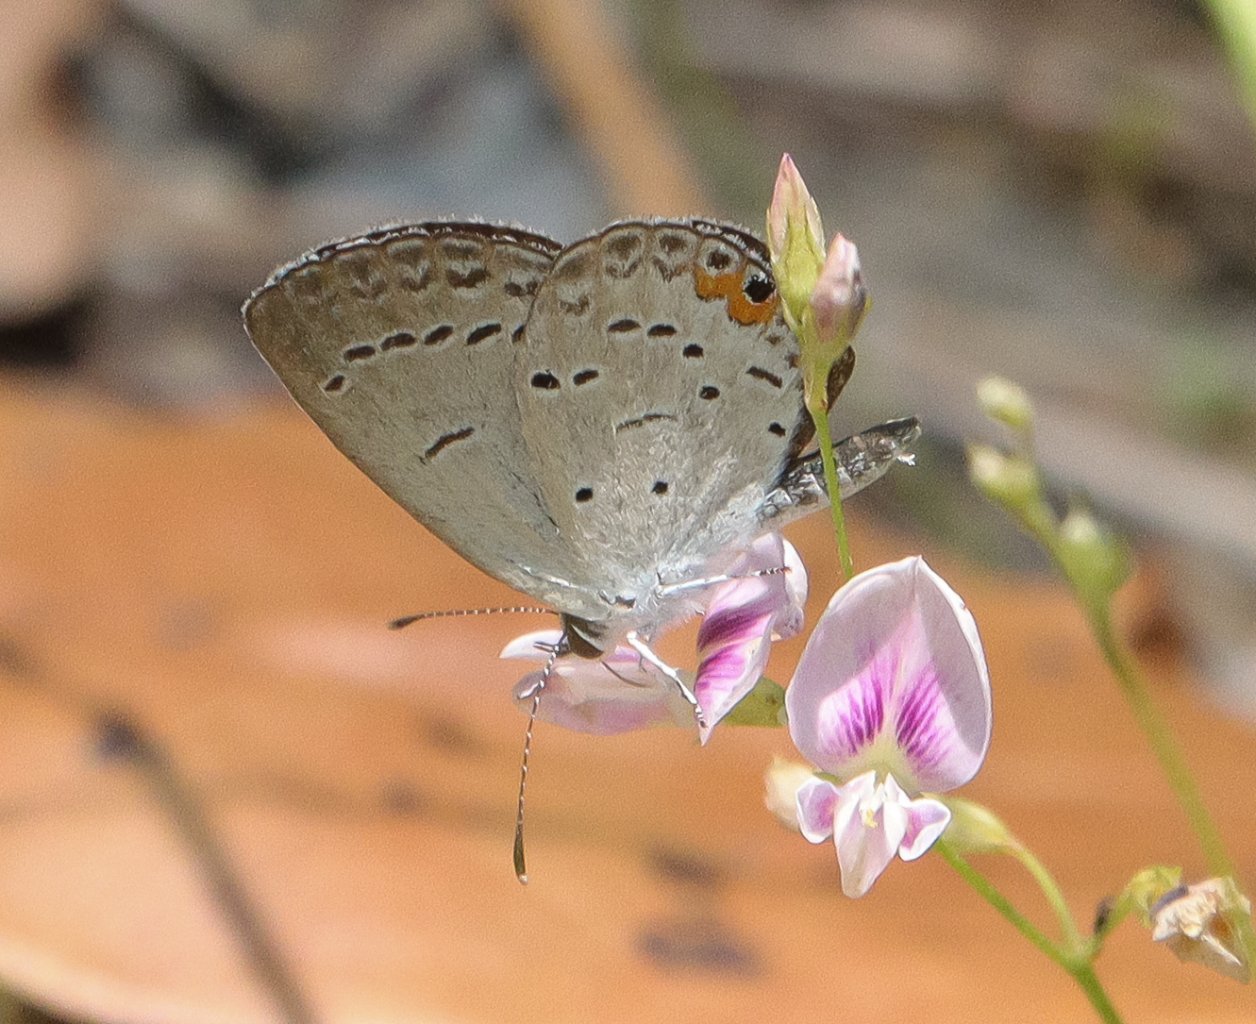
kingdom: Animalia
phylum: Arthropoda
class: Insecta
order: Lepidoptera
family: Lycaenidae
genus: Elkalyce
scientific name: Elkalyce comyntas
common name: Eastern Tailed-Blue
